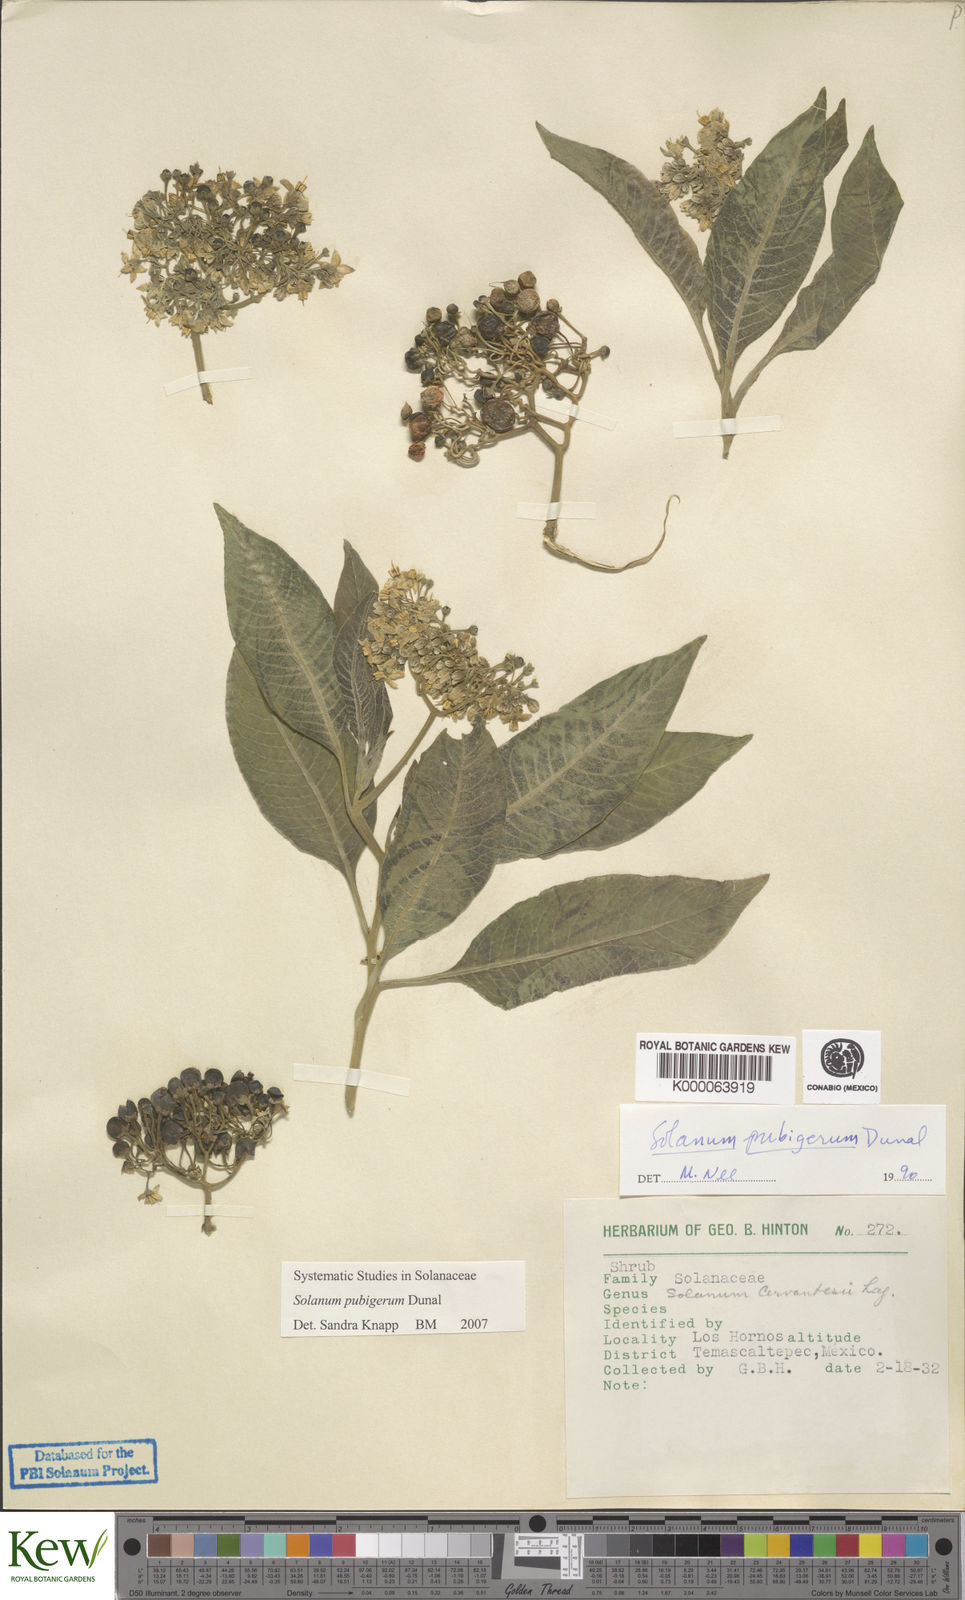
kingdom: Plantae
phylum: Tracheophyta
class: Magnoliopsida
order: Solanales
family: Solanaceae
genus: Solanum
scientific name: Solanum pubigerum
